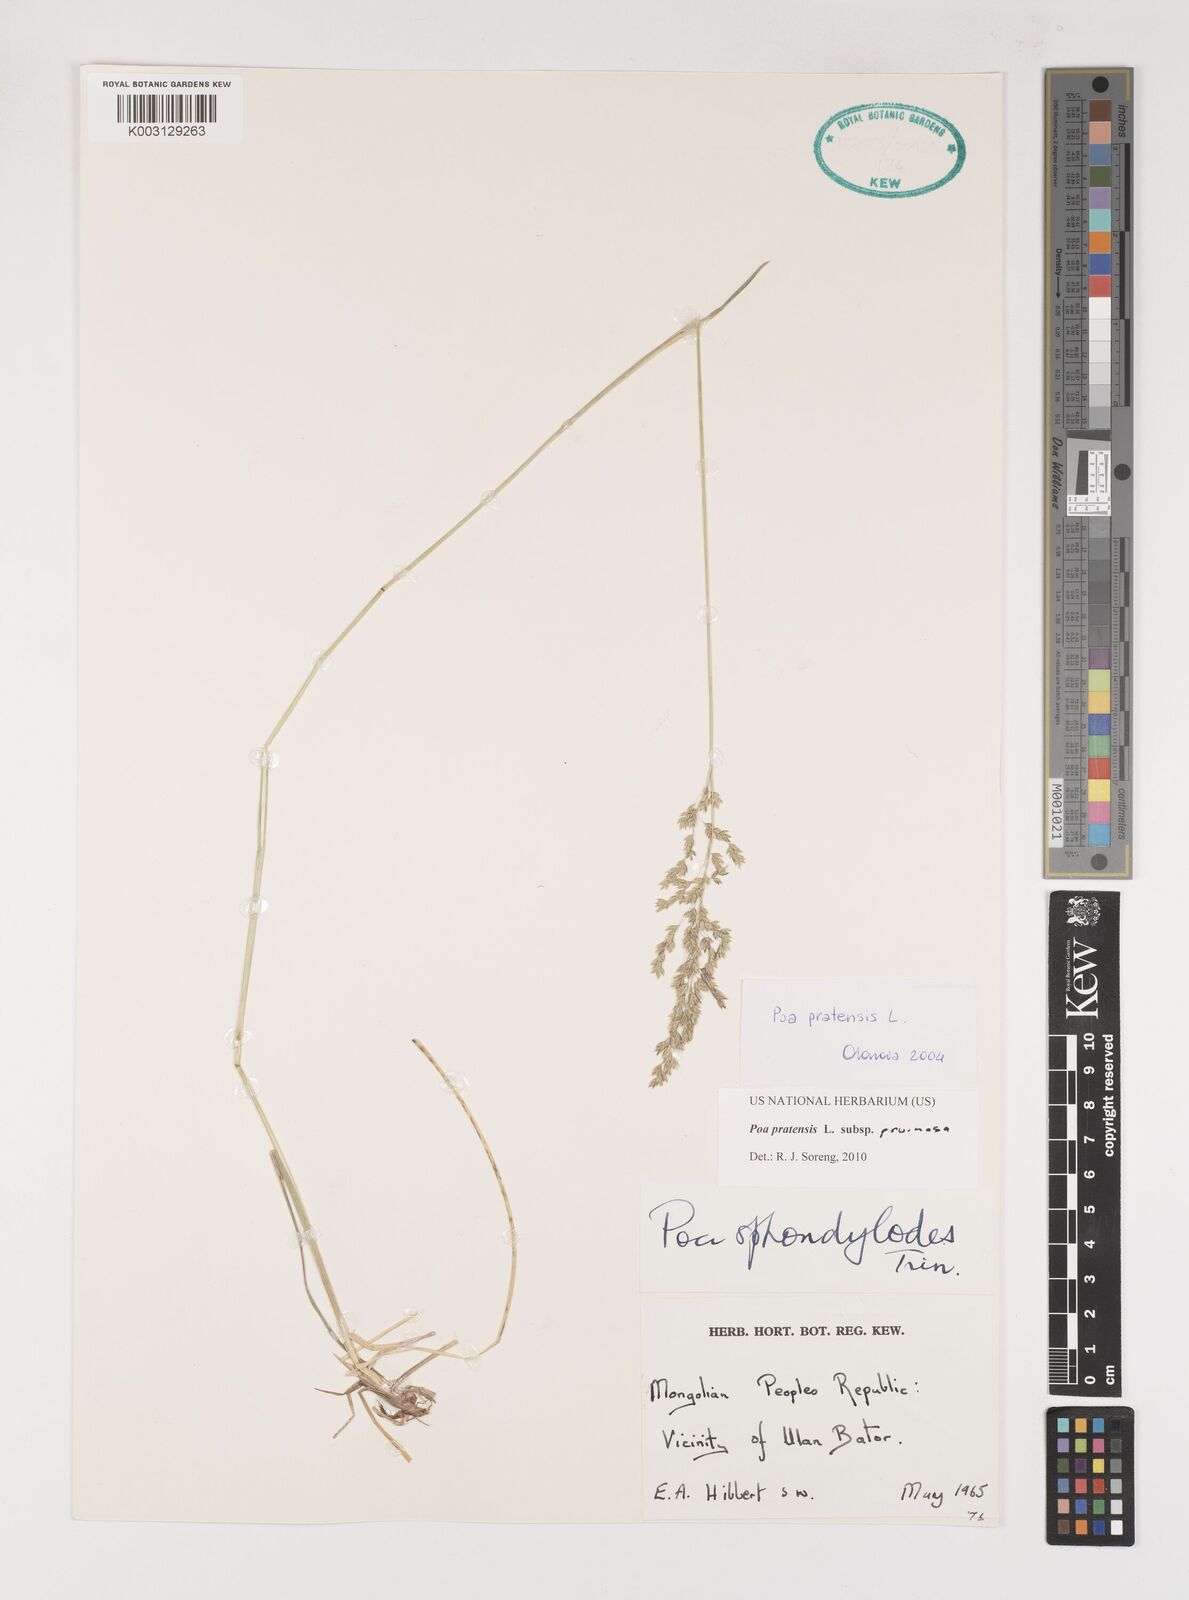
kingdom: Plantae
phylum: Tracheophyta
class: Liliopsida
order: Poales
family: Poaceae
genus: Poa
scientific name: Poa tianschanica
